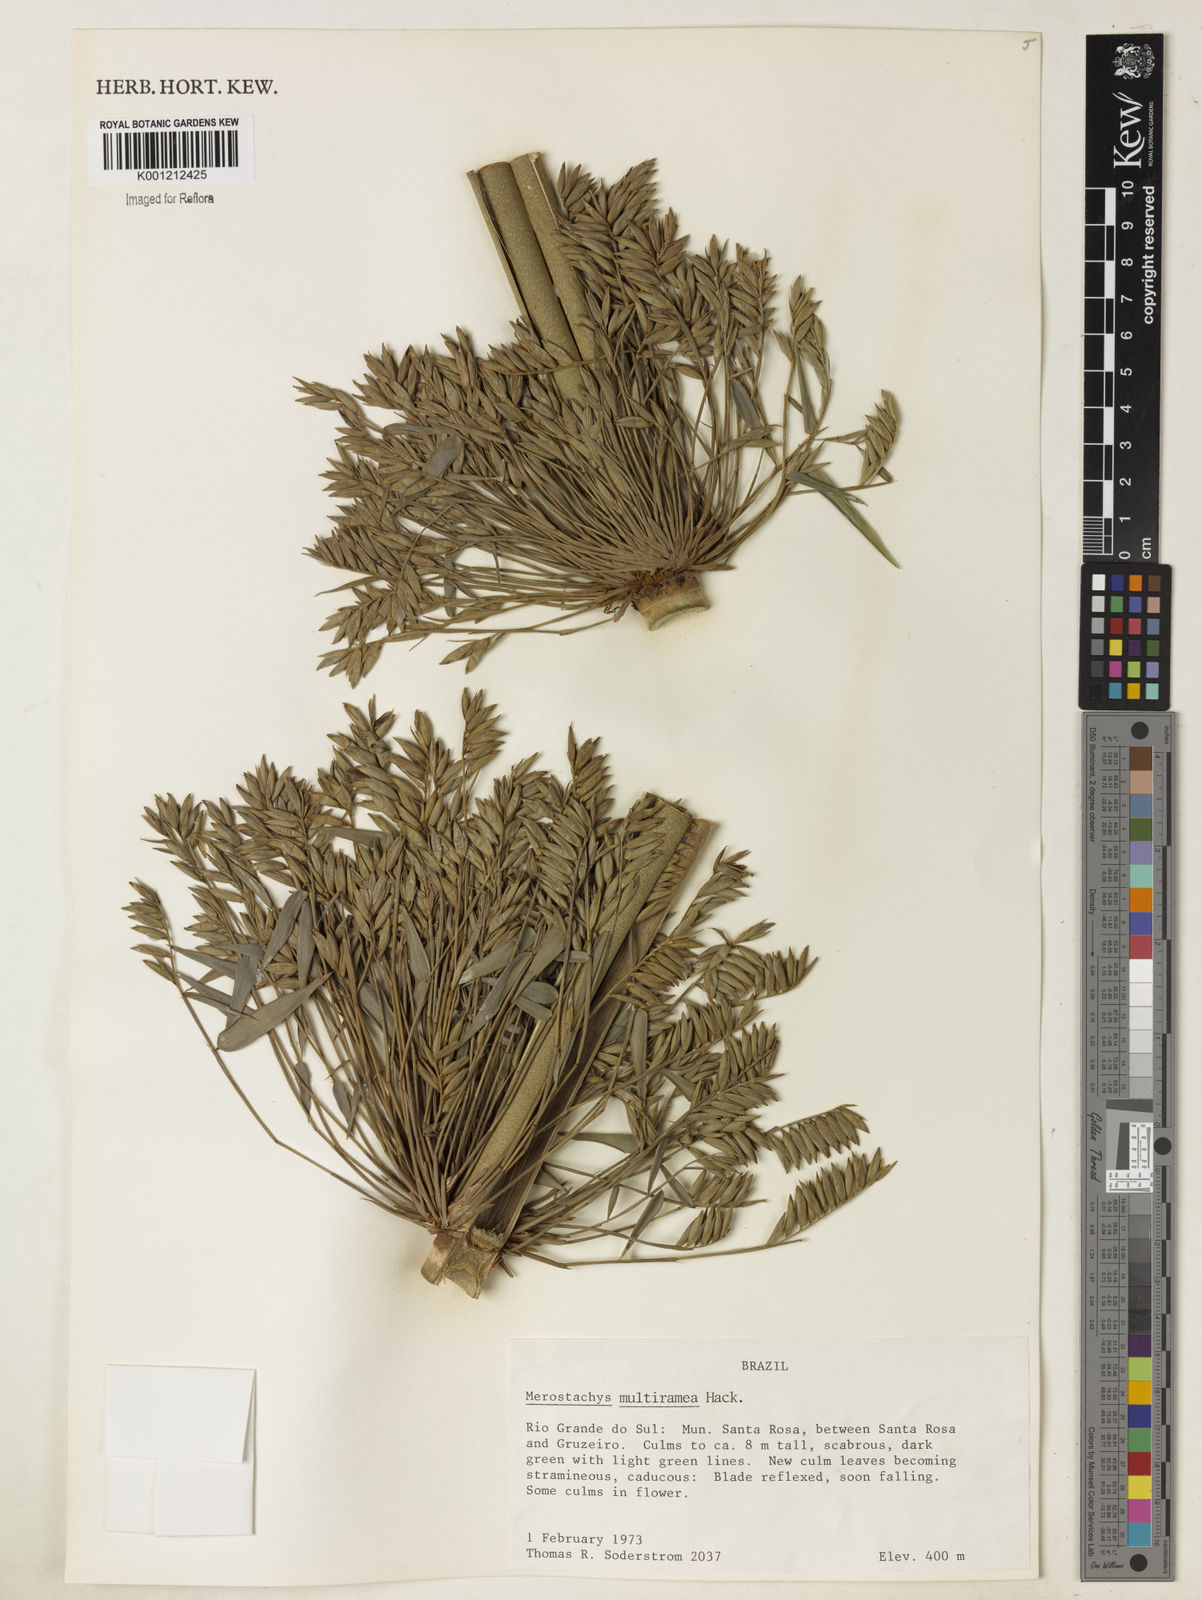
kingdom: Plantae
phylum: Tracheophyta
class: Liliopsida
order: Poales
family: Poaceae
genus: Merostachys
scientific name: Merostachys multiramea
